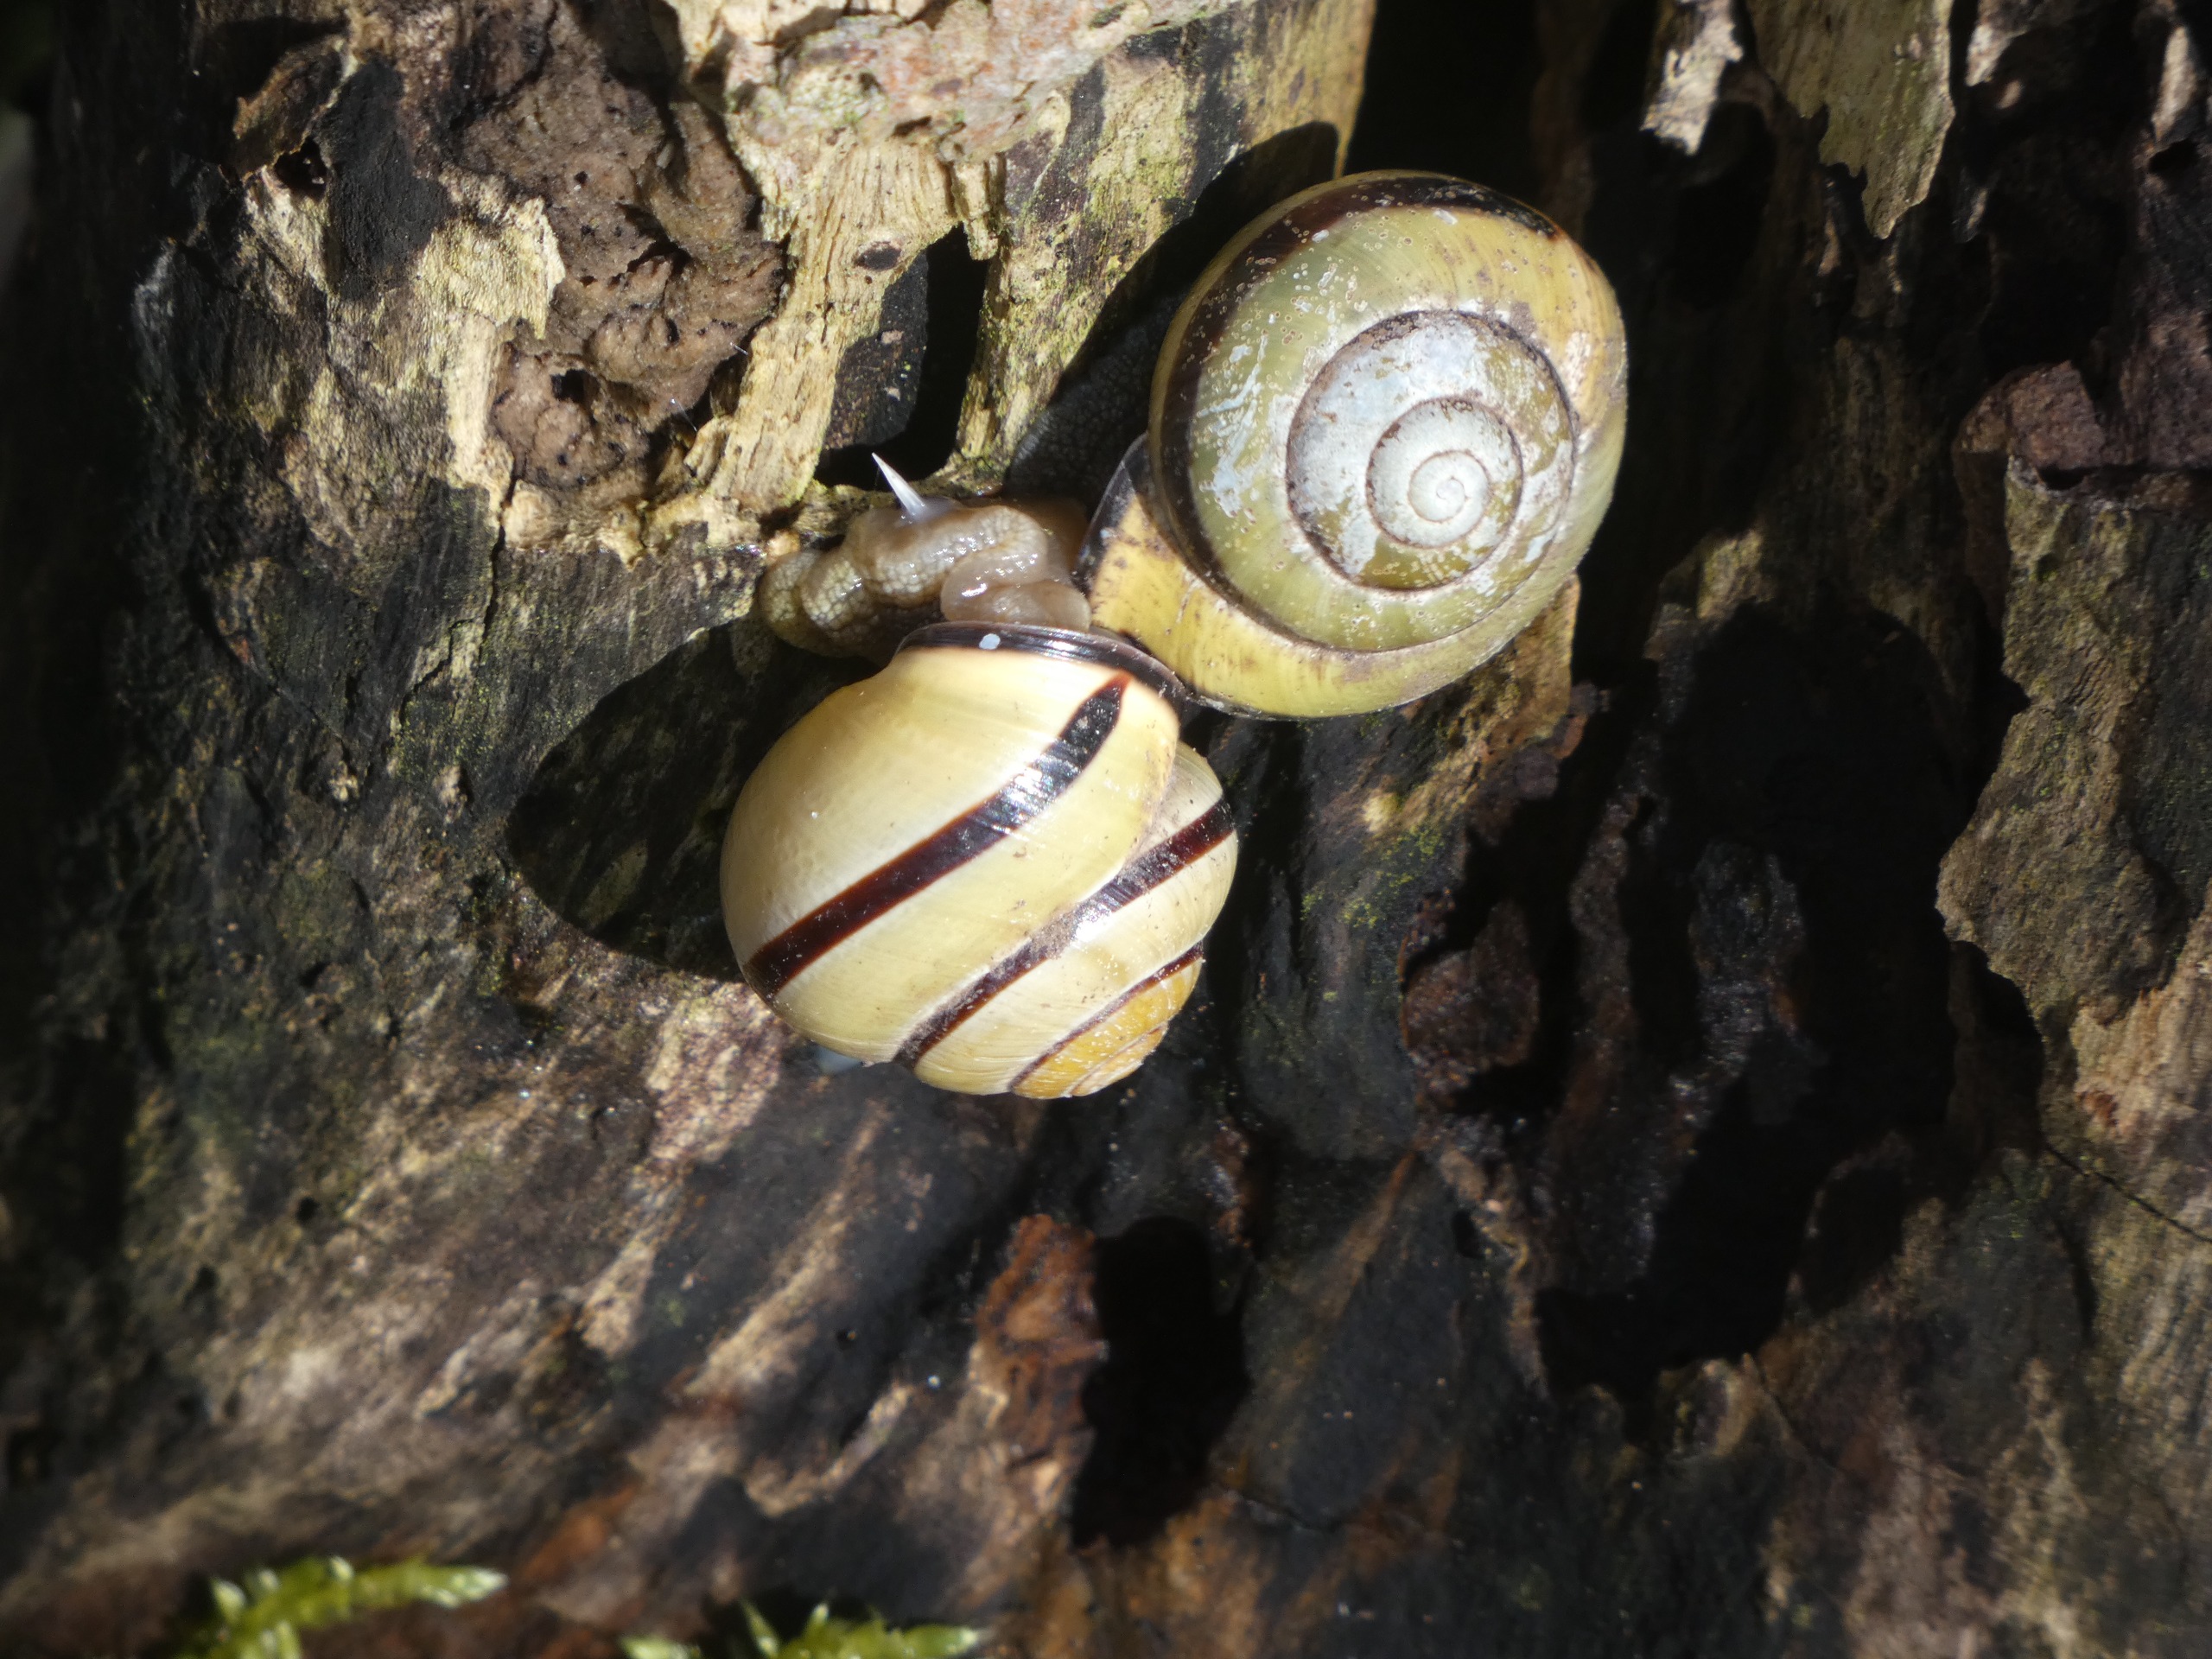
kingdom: Animalia
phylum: Mollusca
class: Gastropoda
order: Stylommatophora
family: Helicidae
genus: Cepaea
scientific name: Cepaea nemoralis
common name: Lundsnegl
